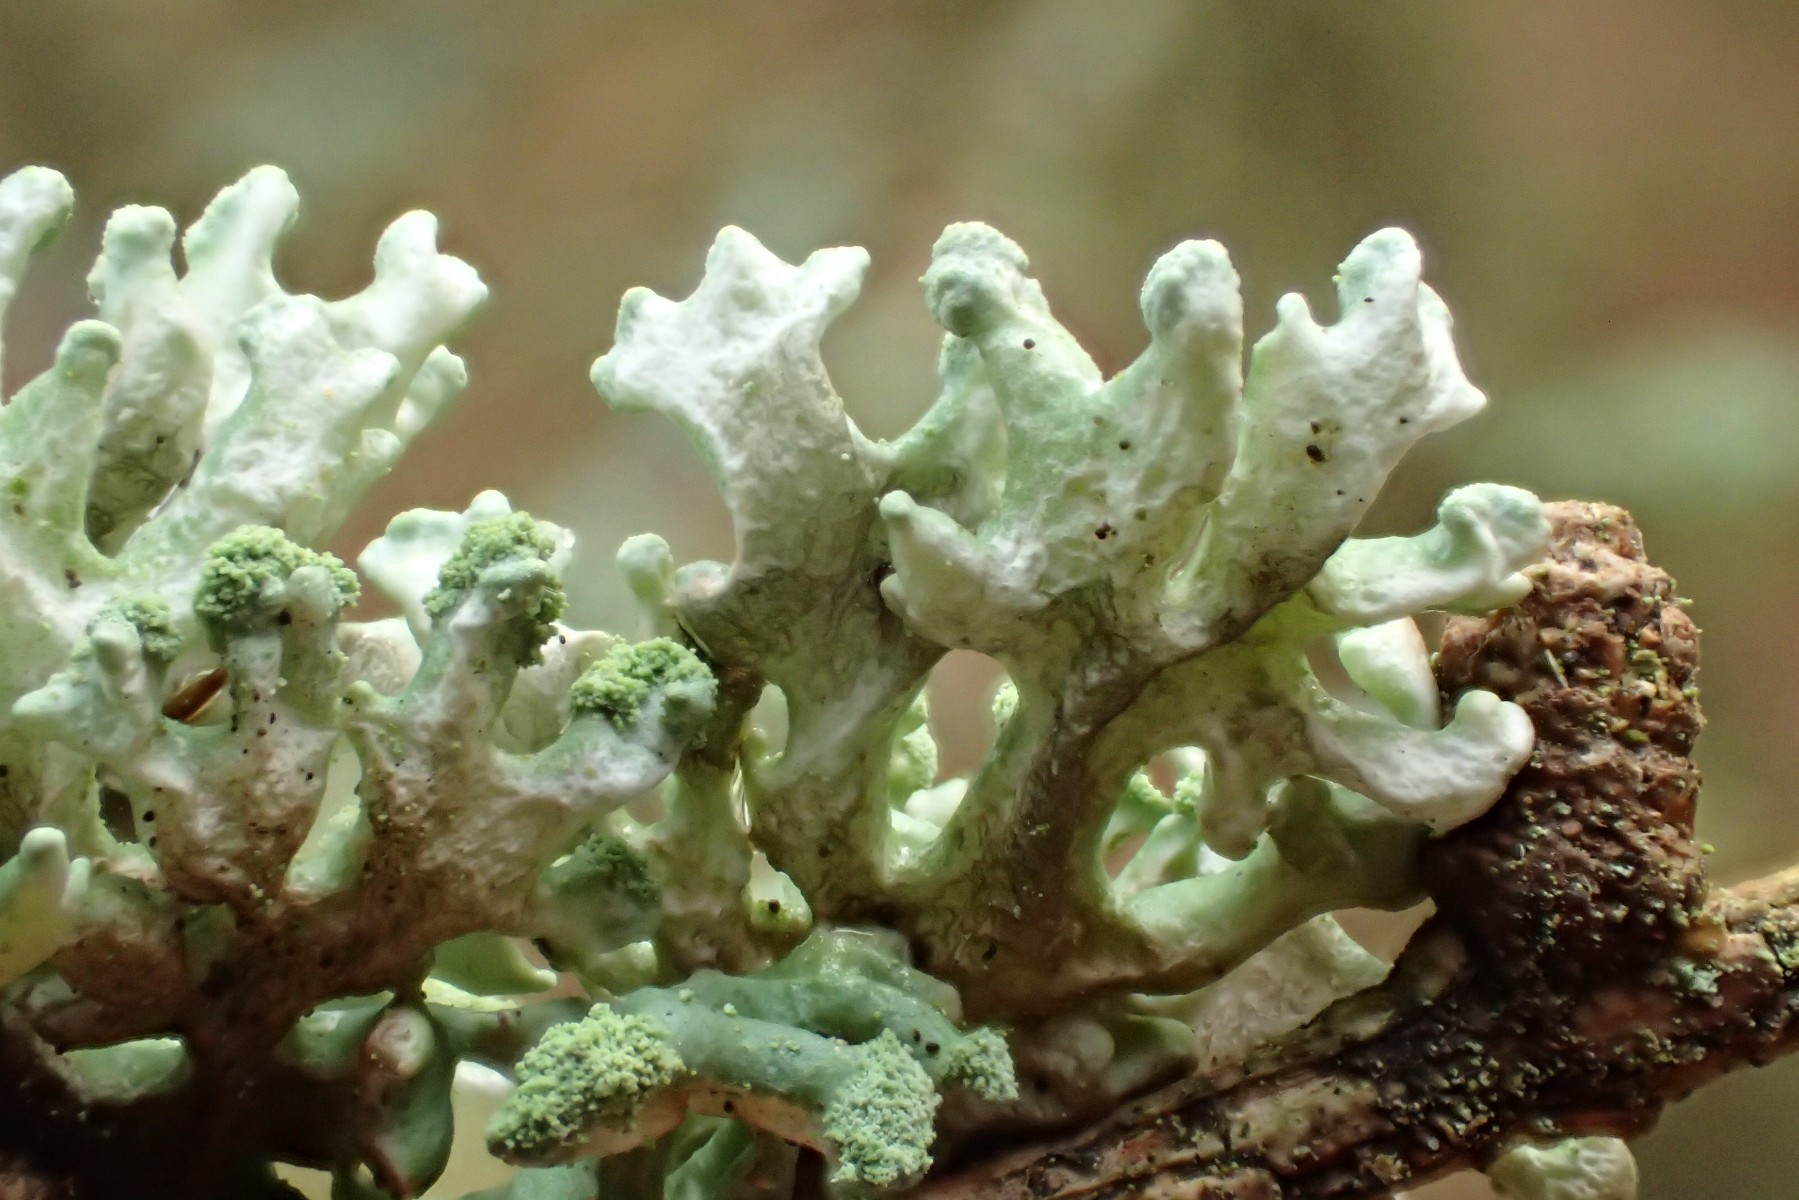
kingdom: Fungi
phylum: Ascomycota
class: Lecanoromycetes
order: Lecanorales
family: Parmeliaceae
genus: Hypogymnia
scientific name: Hypogymnia tubulosa
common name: finger-kvistlav
